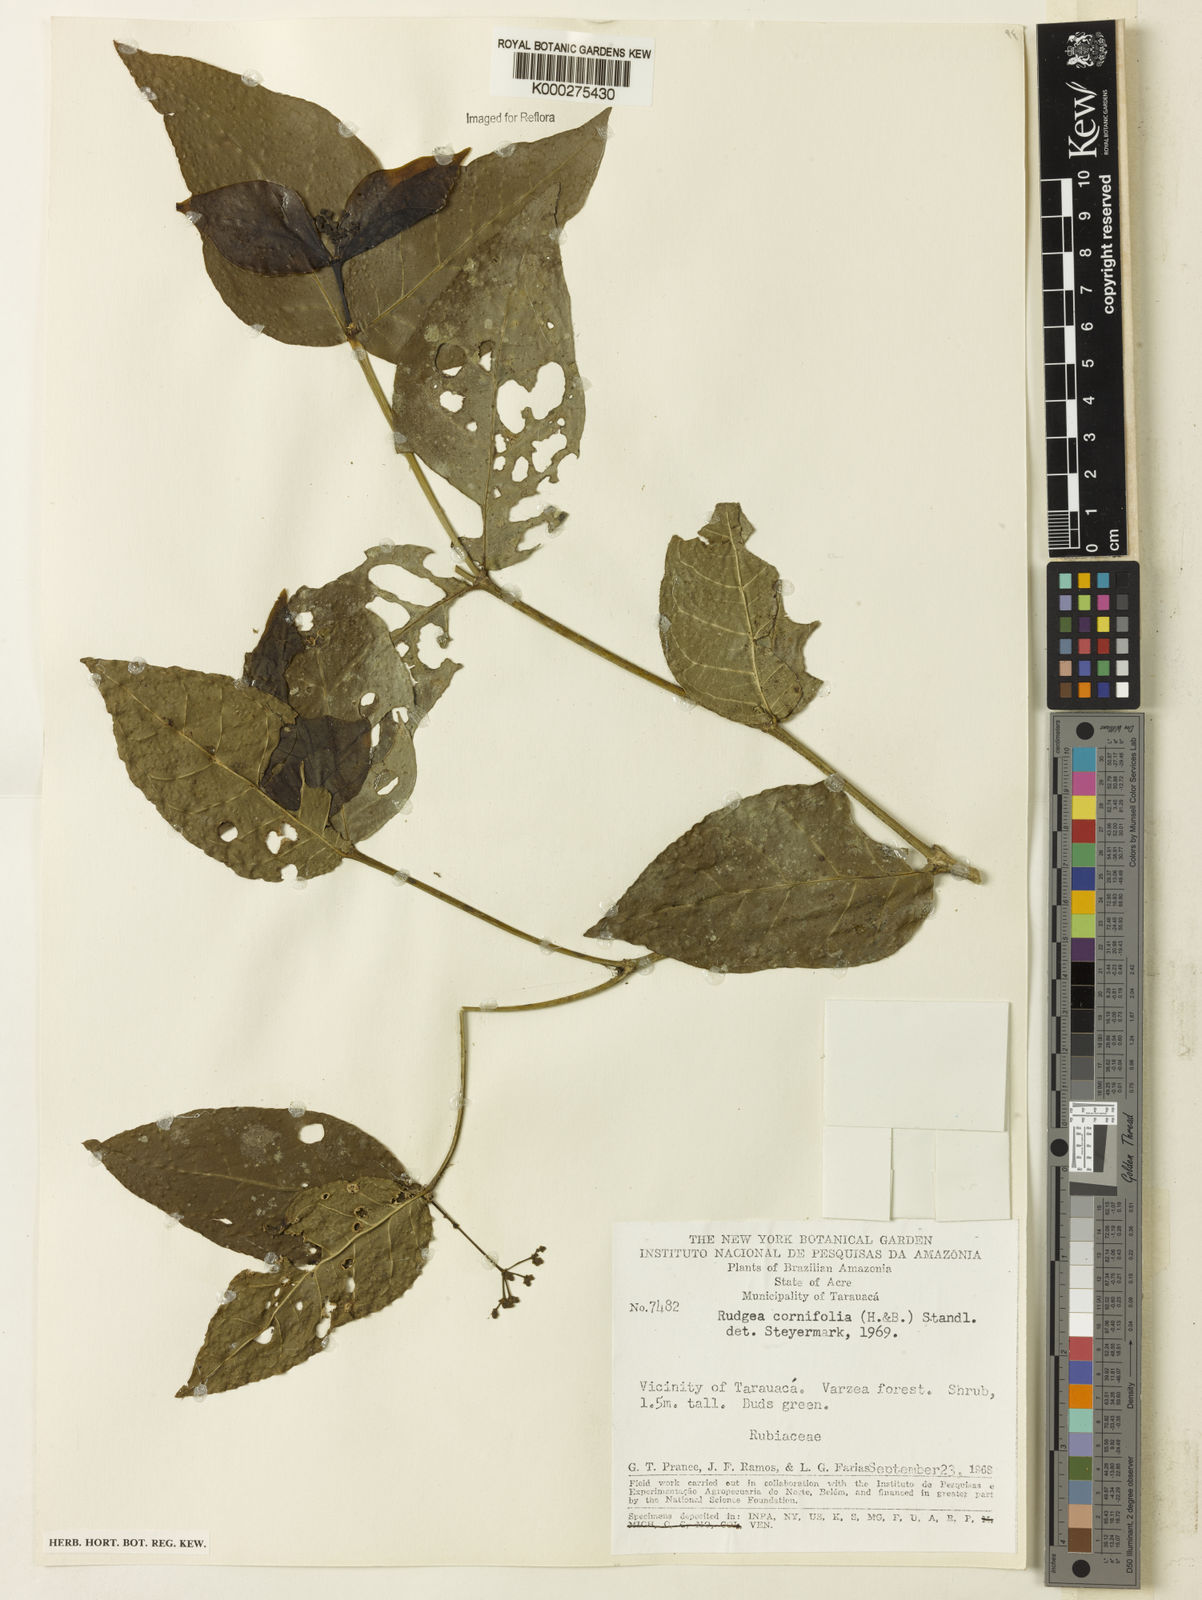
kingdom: Plantae
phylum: Tracheophyta
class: Magnoliopsida
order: Gentianales
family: Rubiaceae
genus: Rudgea
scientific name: Rudgea cornifolia
